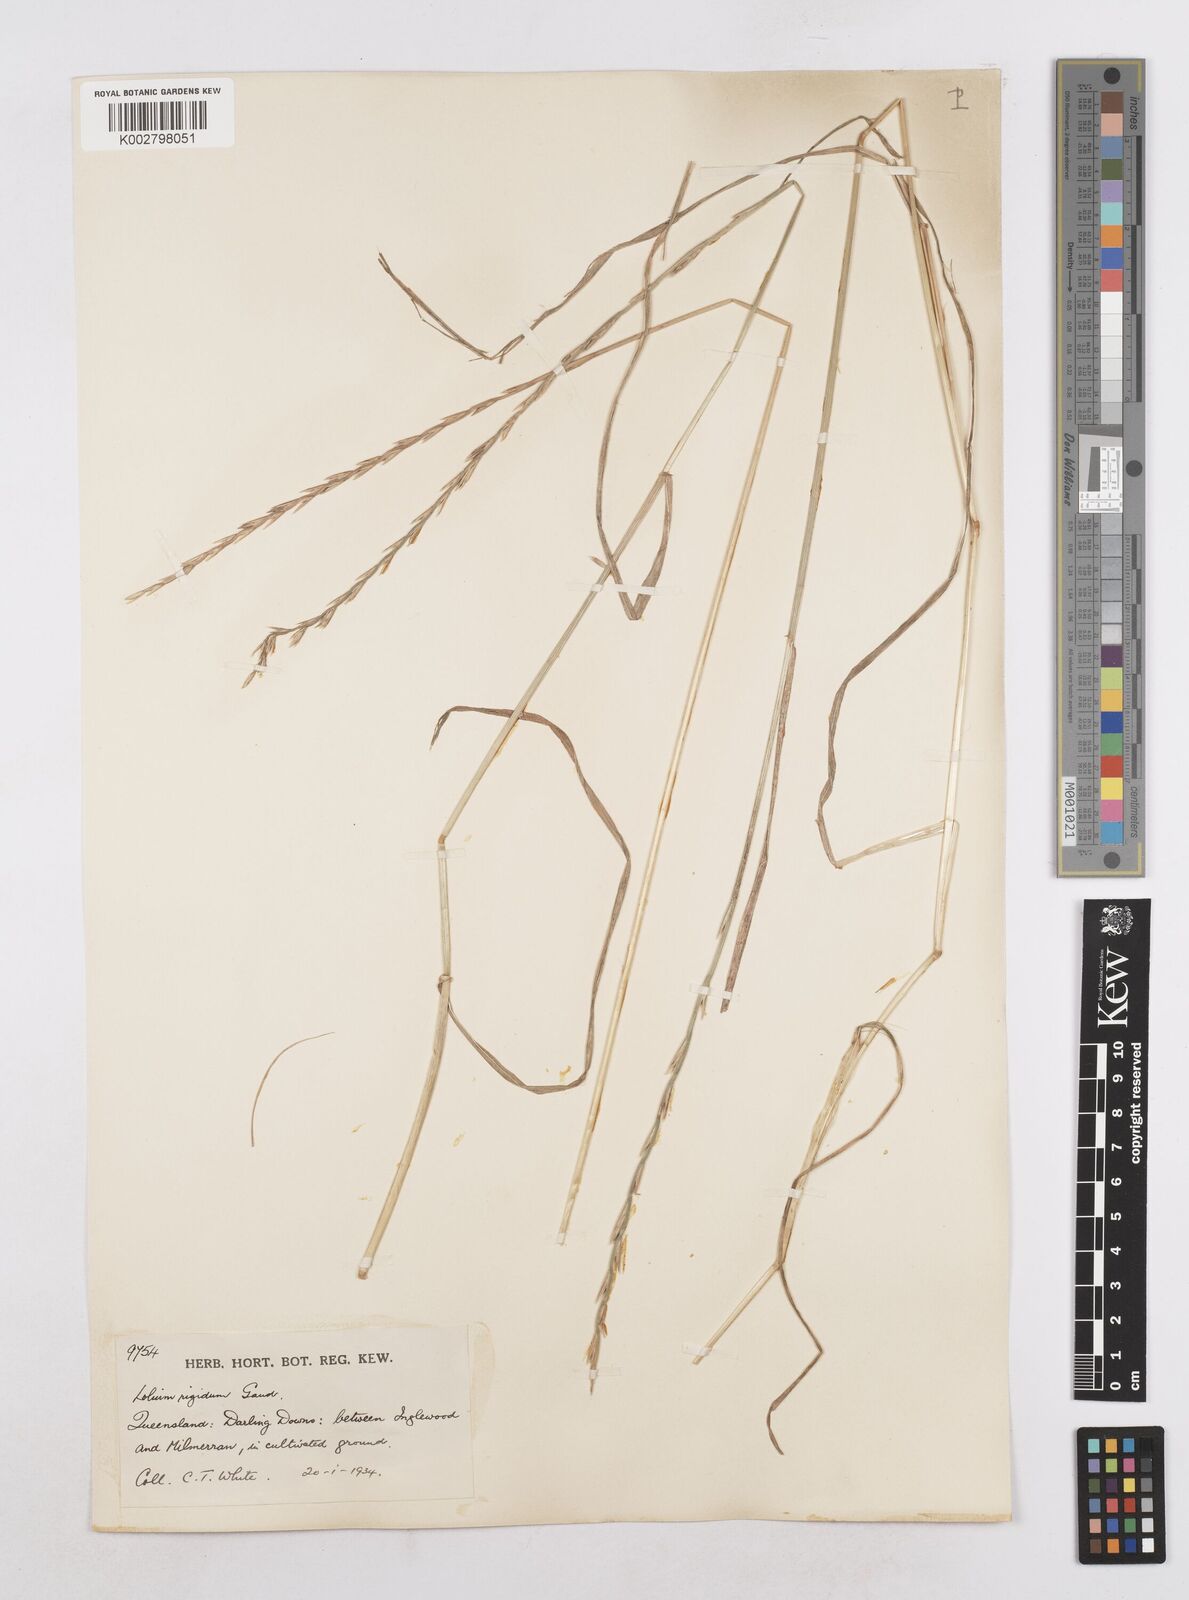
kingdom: Plantae
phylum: Tracheophyta
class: Liliopsida
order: Poales
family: Poaceae
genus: Lolium
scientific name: Lolium
